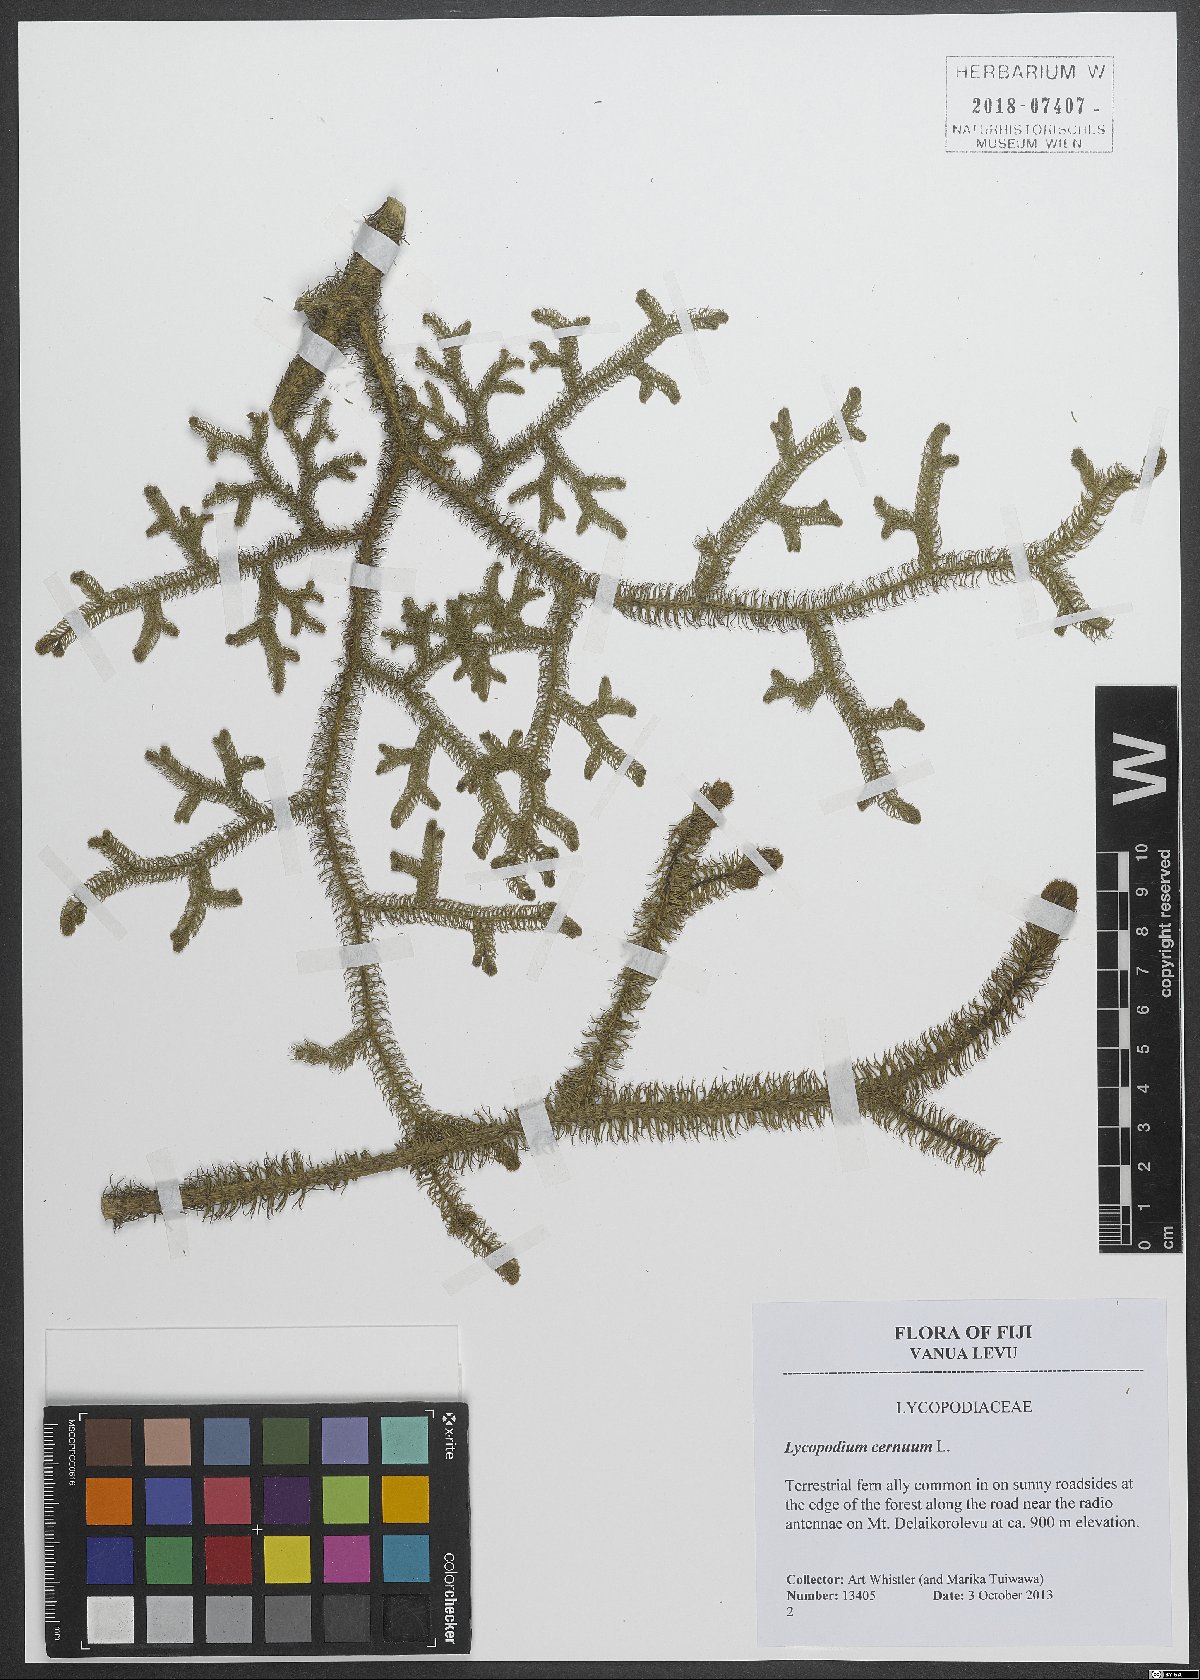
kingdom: Plantae
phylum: Tracheophyta
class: Lycopodiopsida
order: Lycopodiales
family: Lycopodiaceae
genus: Palhinhaea
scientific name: Palhinhaea cernua
